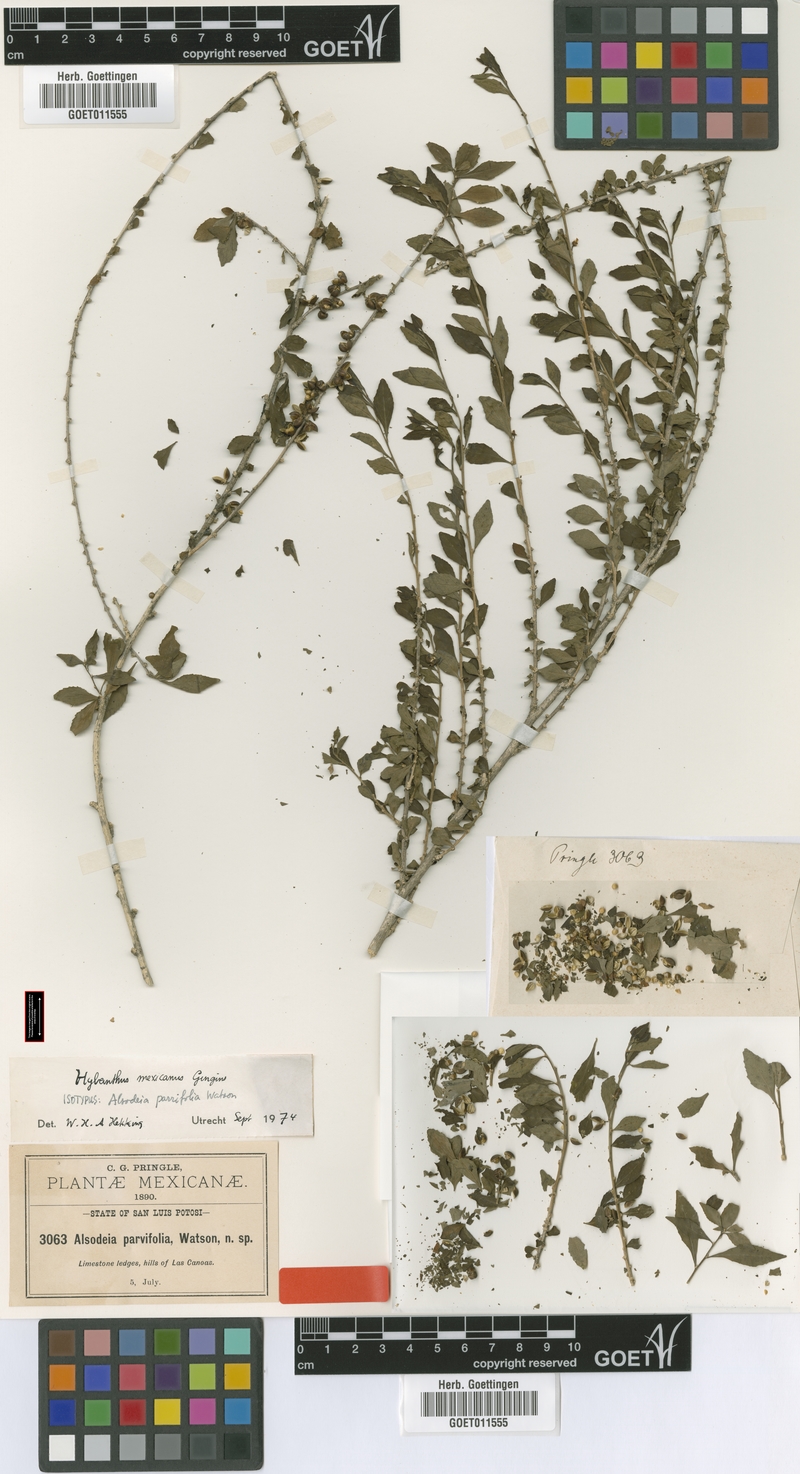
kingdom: Plantae
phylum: Tracheophyta
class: Magnoliopsida
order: Malpighiales
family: Violaceae
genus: Ixchelia
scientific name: Ixchelia mexicana
